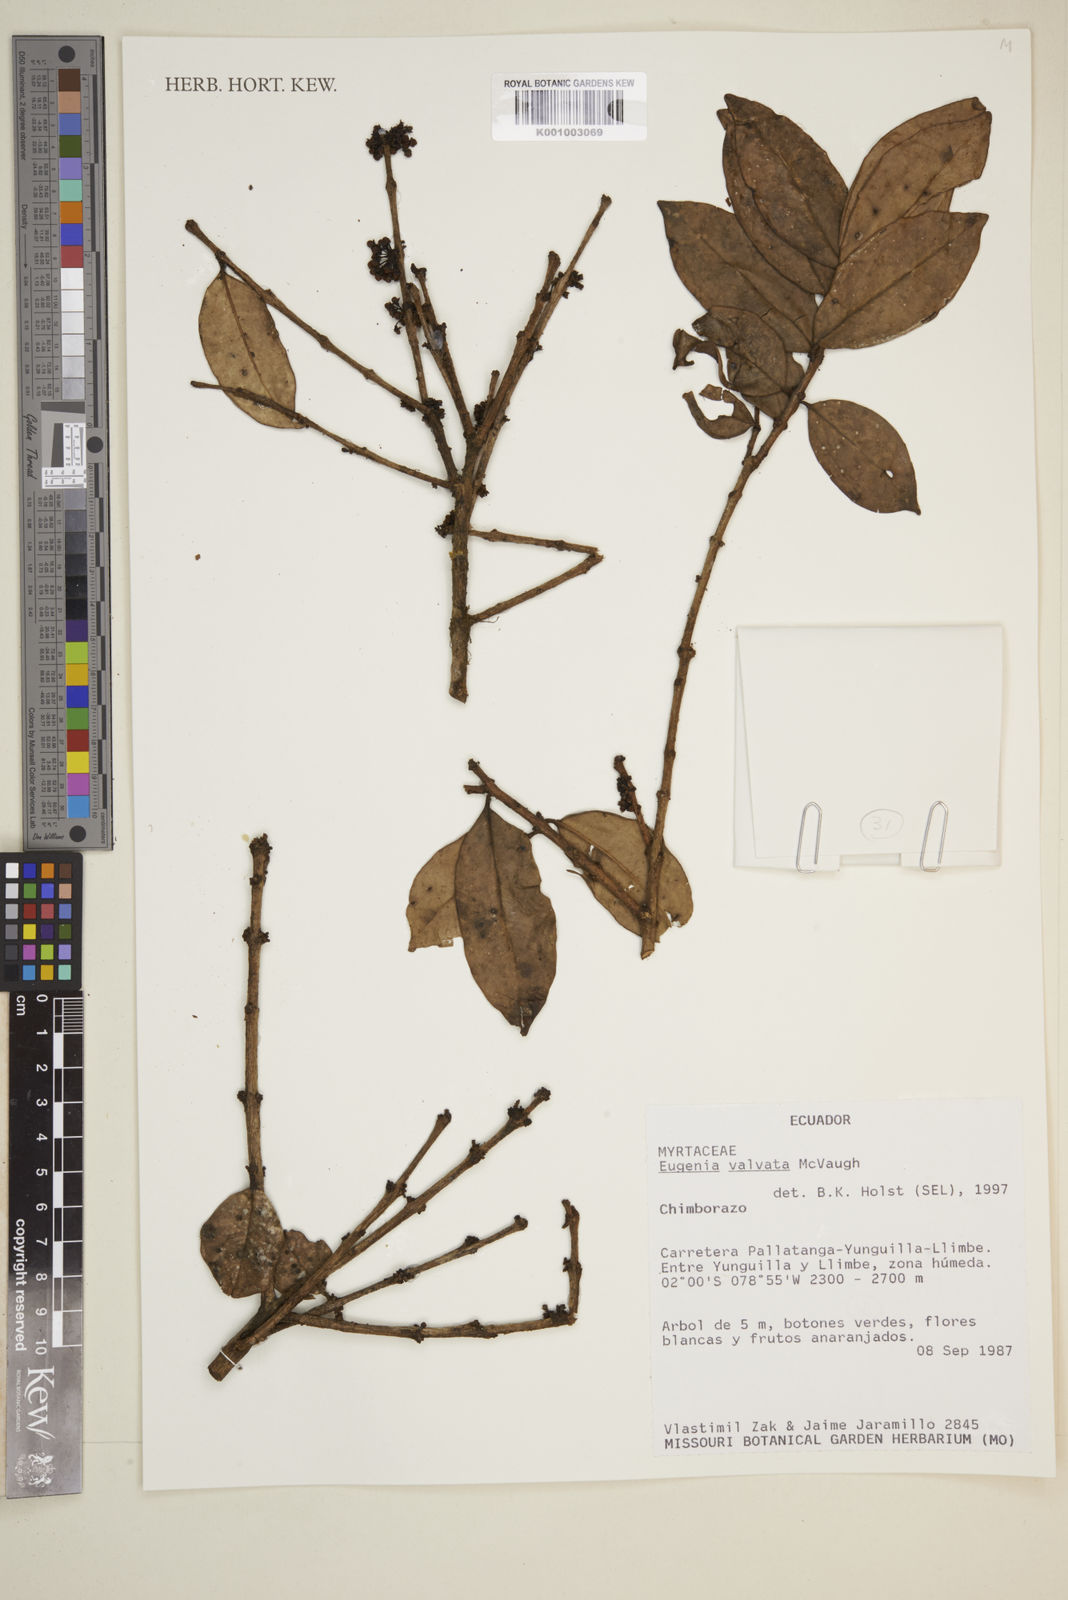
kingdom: Plantae
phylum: Tracheophyta
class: Magnoliopsida
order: Myrtales
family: Myrtaceae
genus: Eugenia
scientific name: Eugenia valvata
